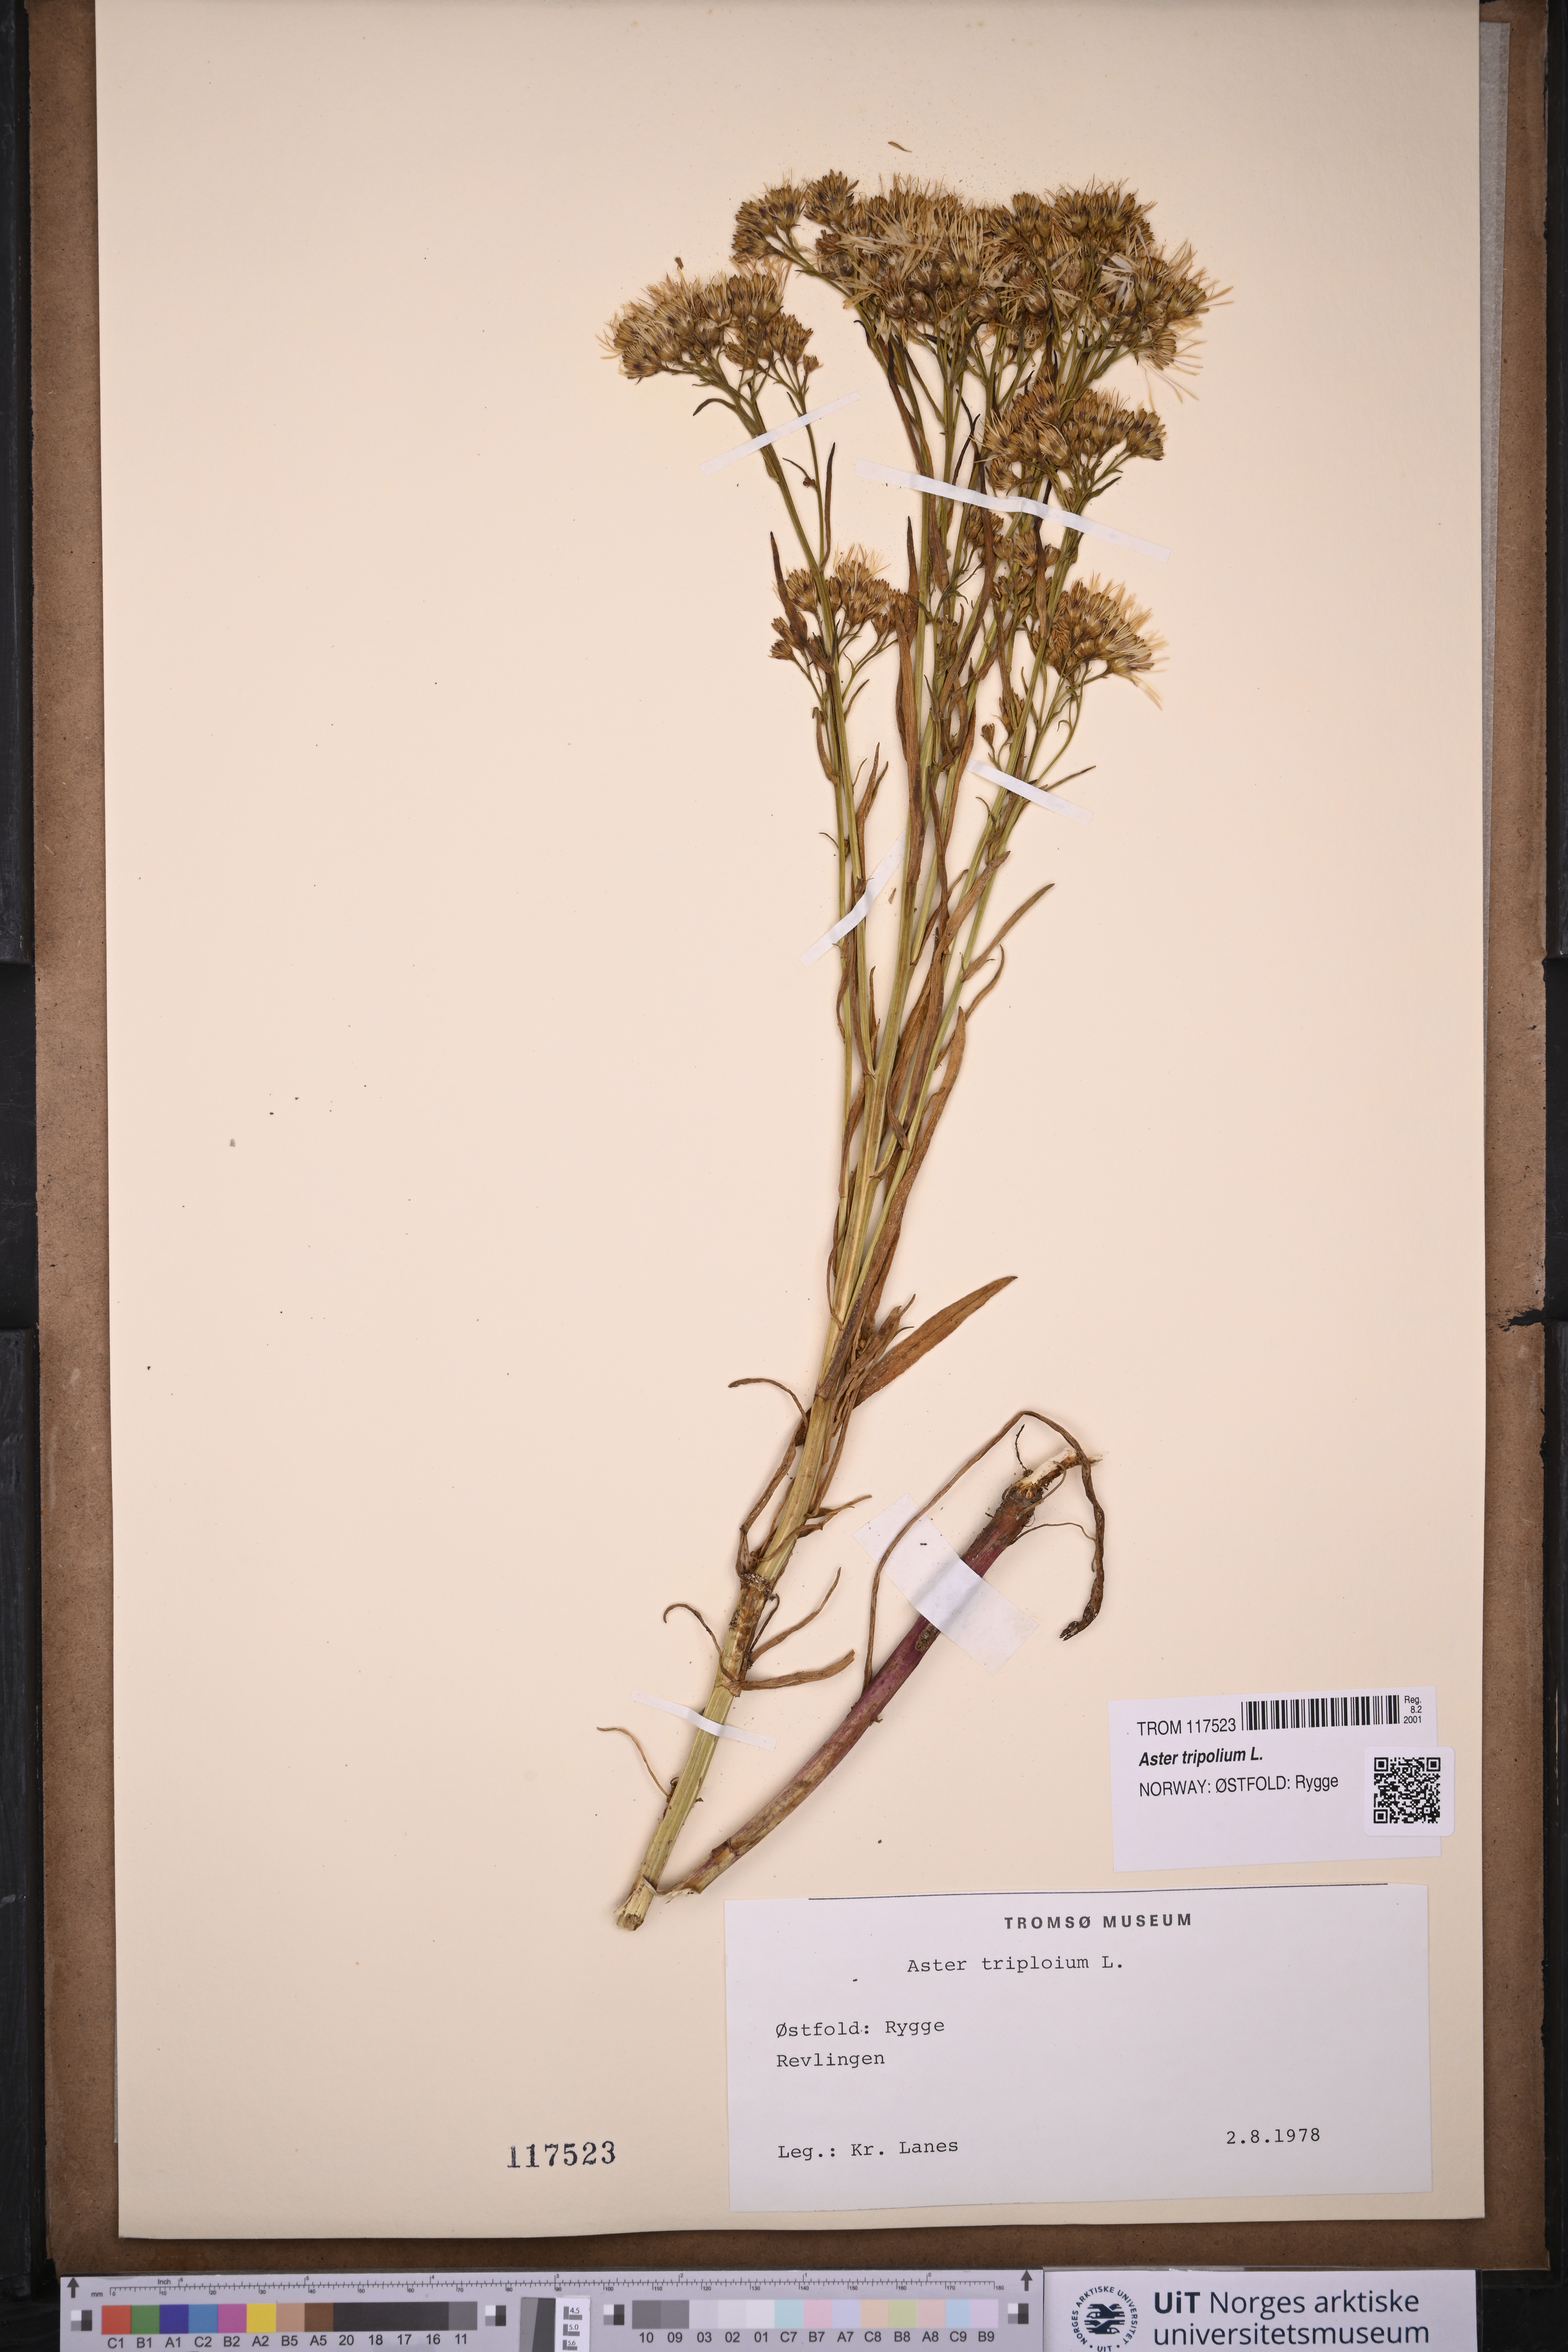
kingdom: Plantae
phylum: Tracheophyta
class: Magnoliopsida
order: Asterales
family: Asteraceae
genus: Tripolium
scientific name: Tripolium pannonicum
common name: Sea aster
